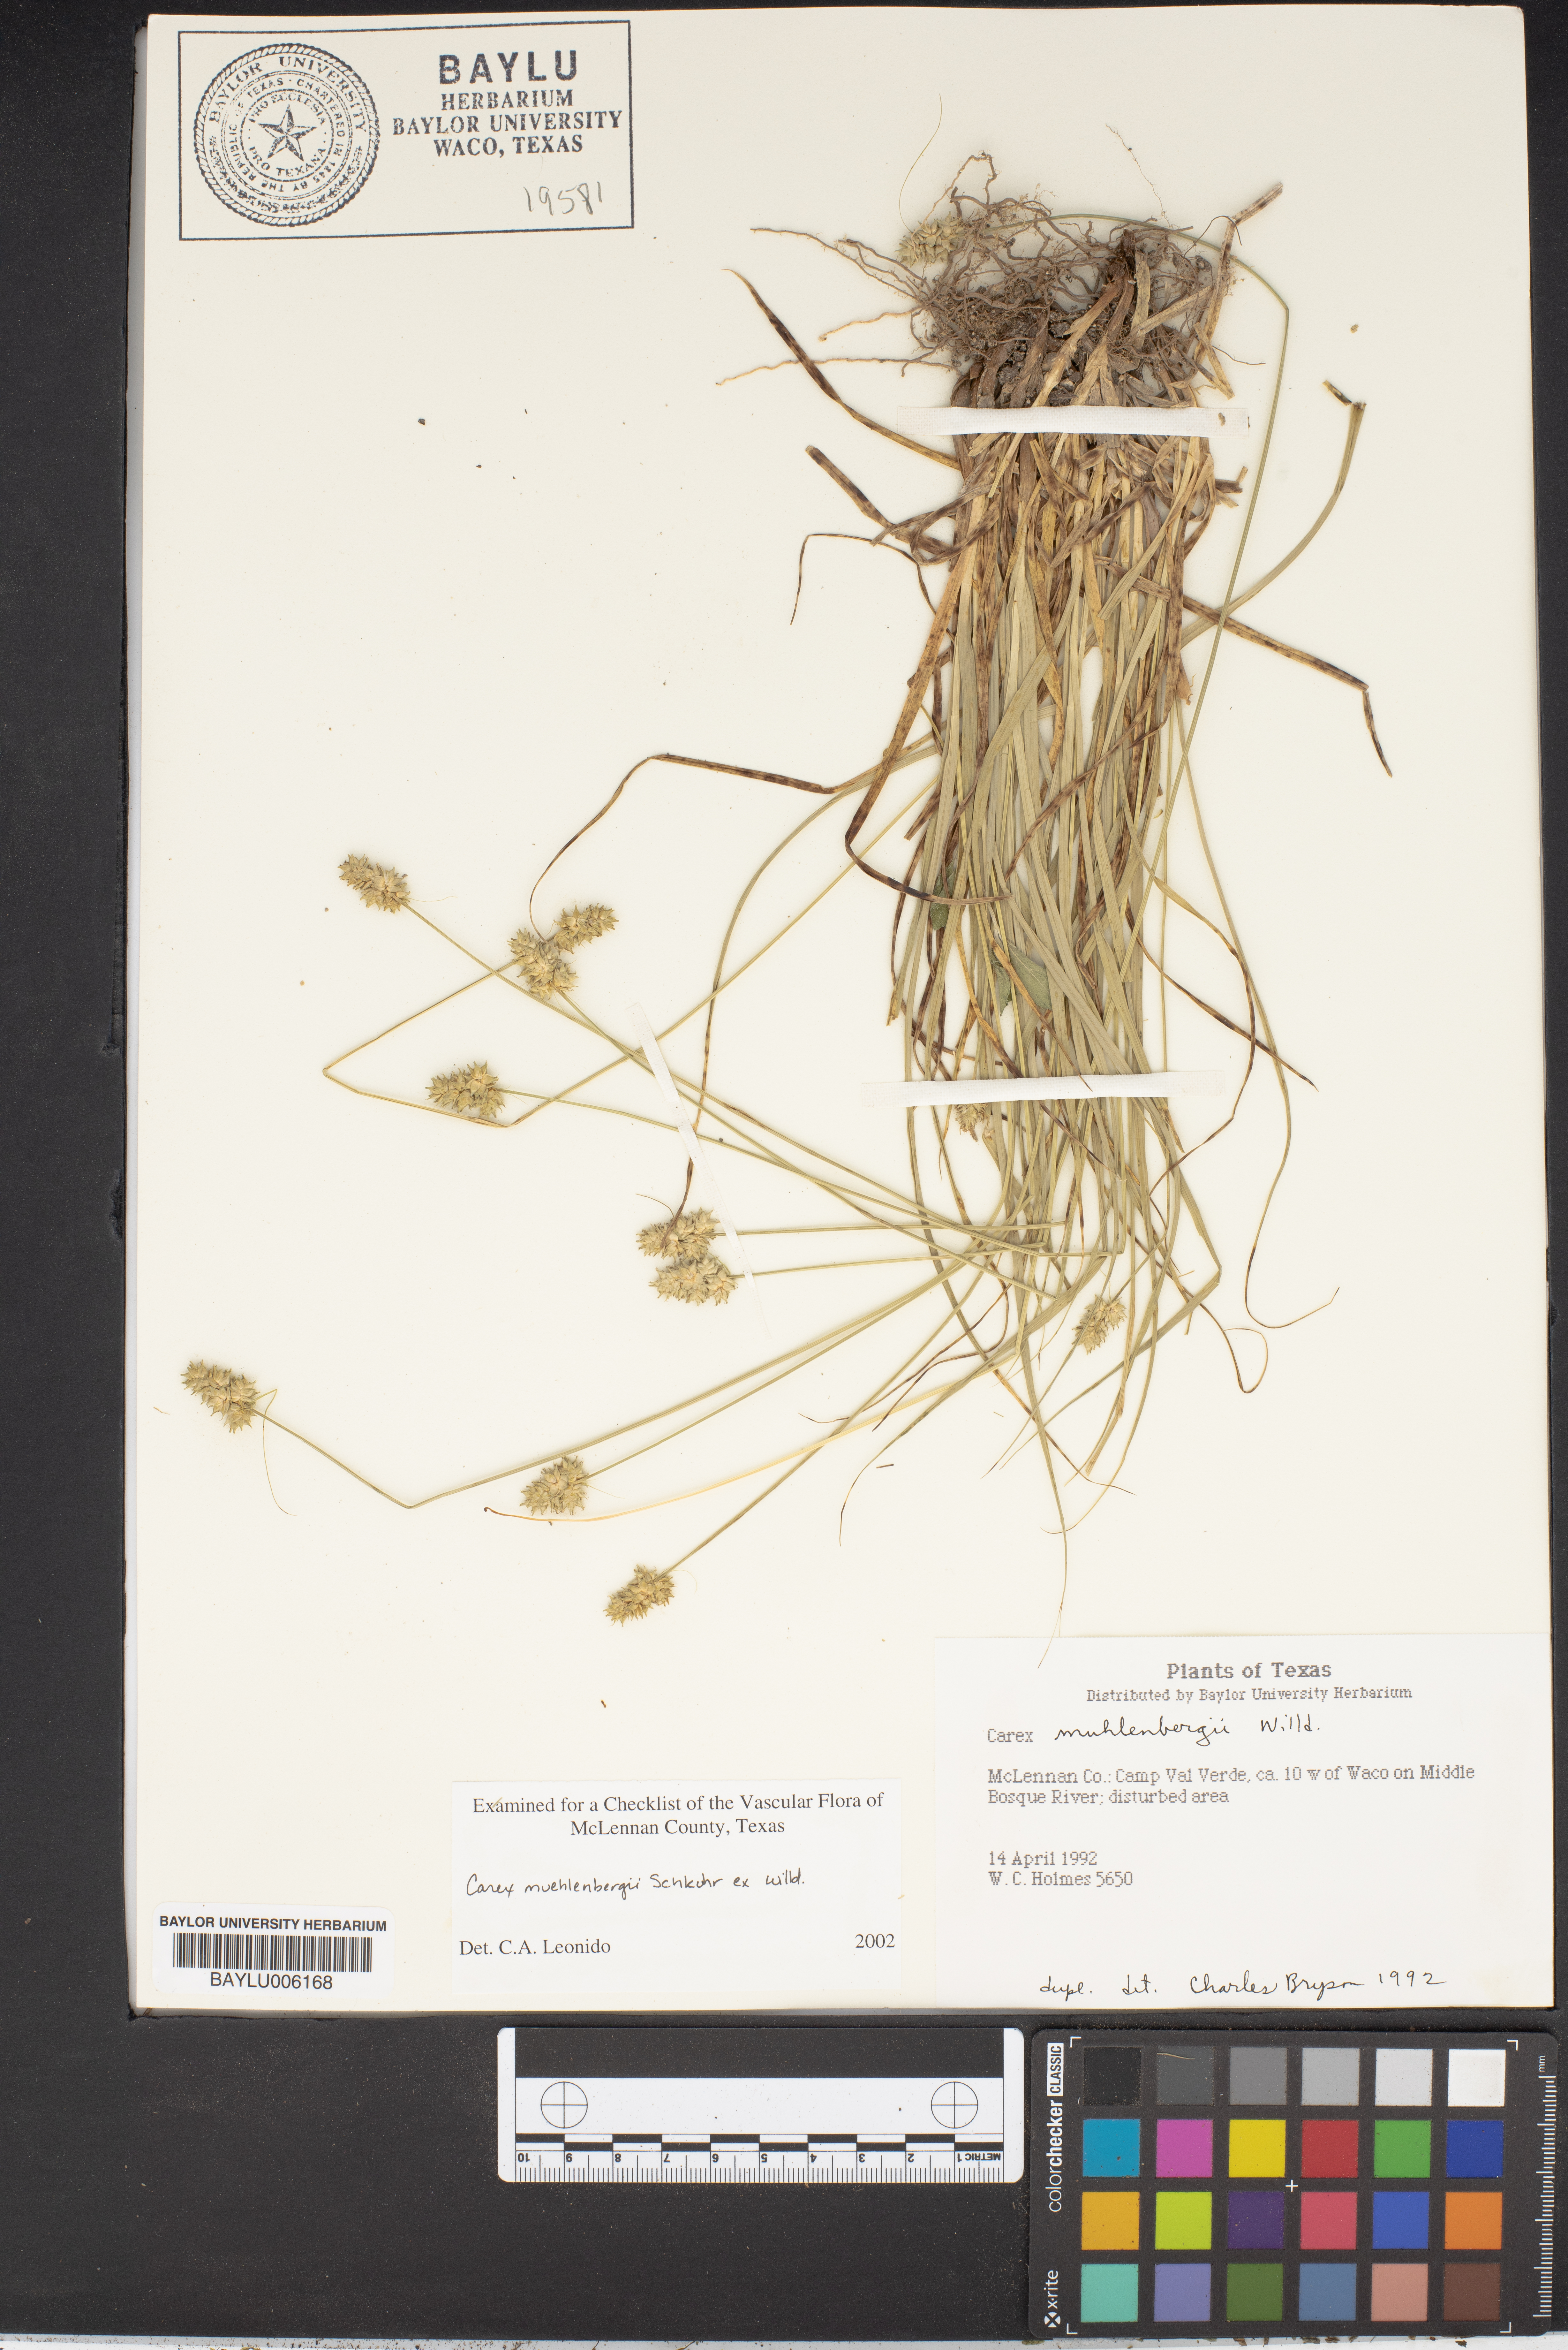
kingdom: Plantae
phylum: Tracheophyta
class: Liliopsida
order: Poales
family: Cyperaceae
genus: Carex
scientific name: Carex vulpinoidea
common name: American fox-sedge
